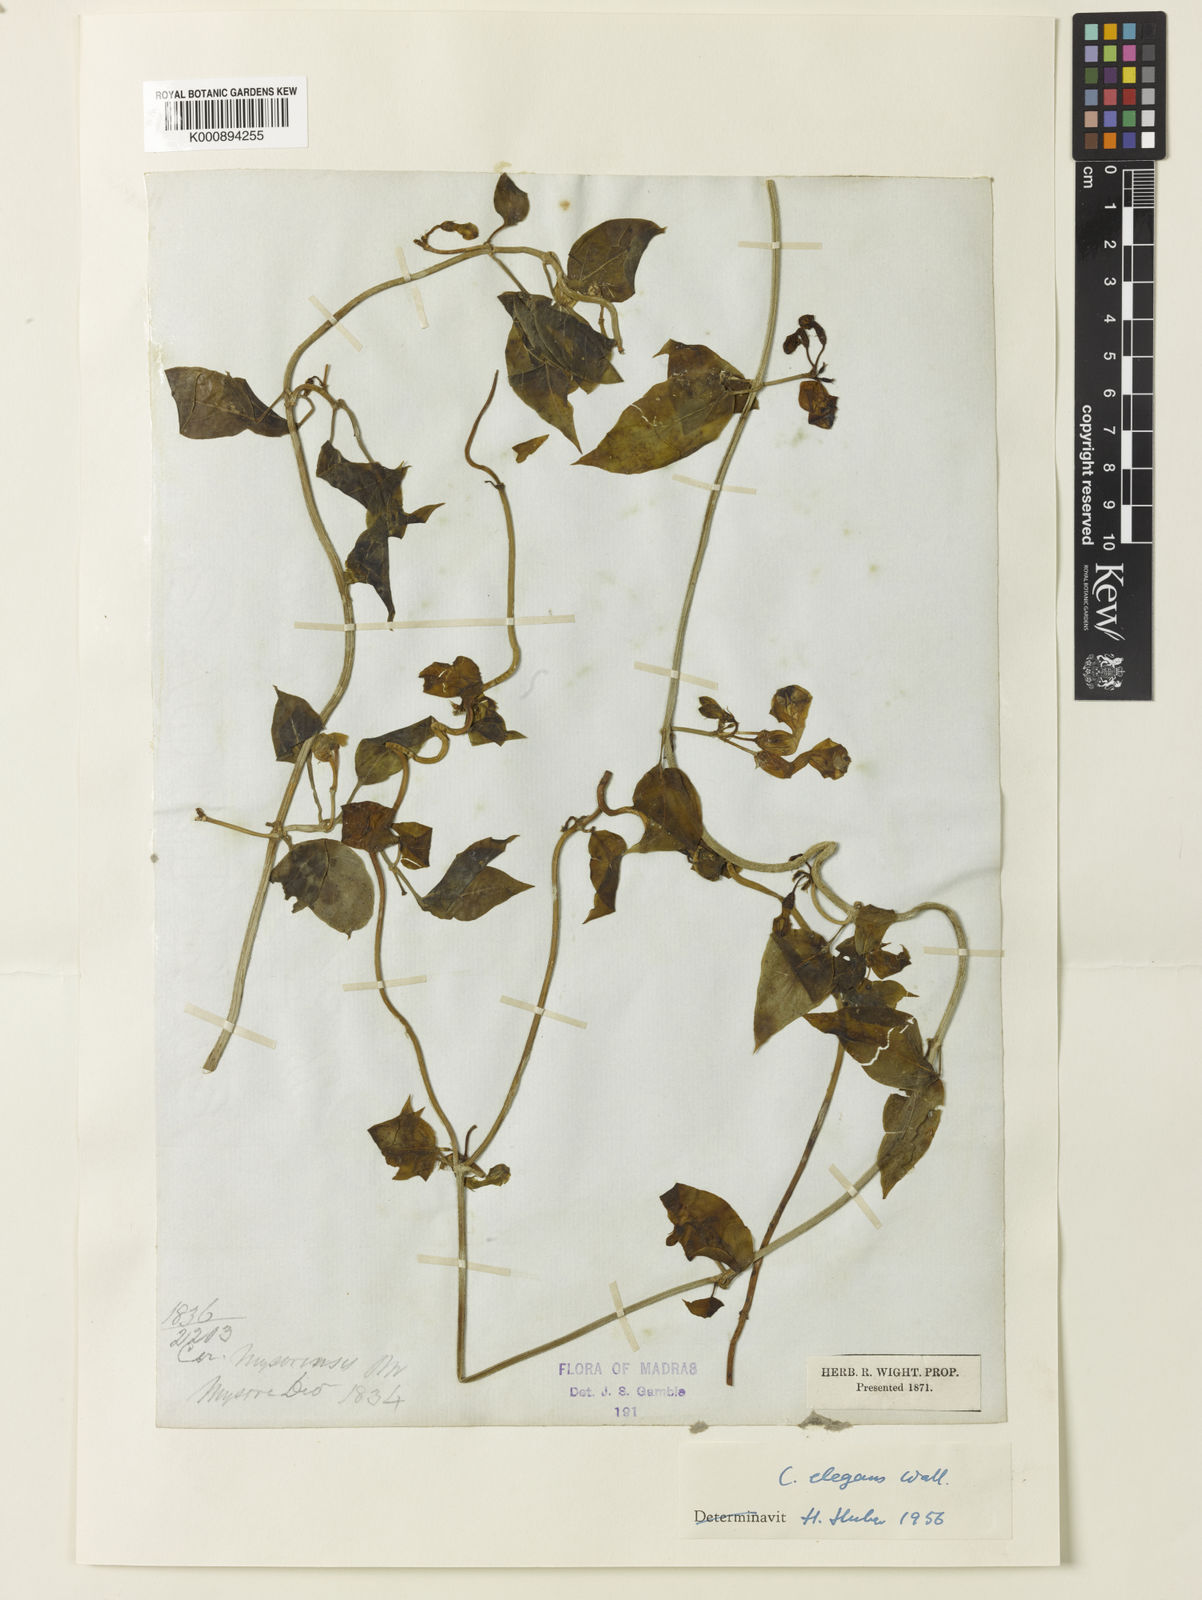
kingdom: Plantae
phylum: Tracheophyta
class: Magnoliopsida
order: Gentianales
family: Apocynaceae
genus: Ceropegia
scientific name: Ceropegia elegans
